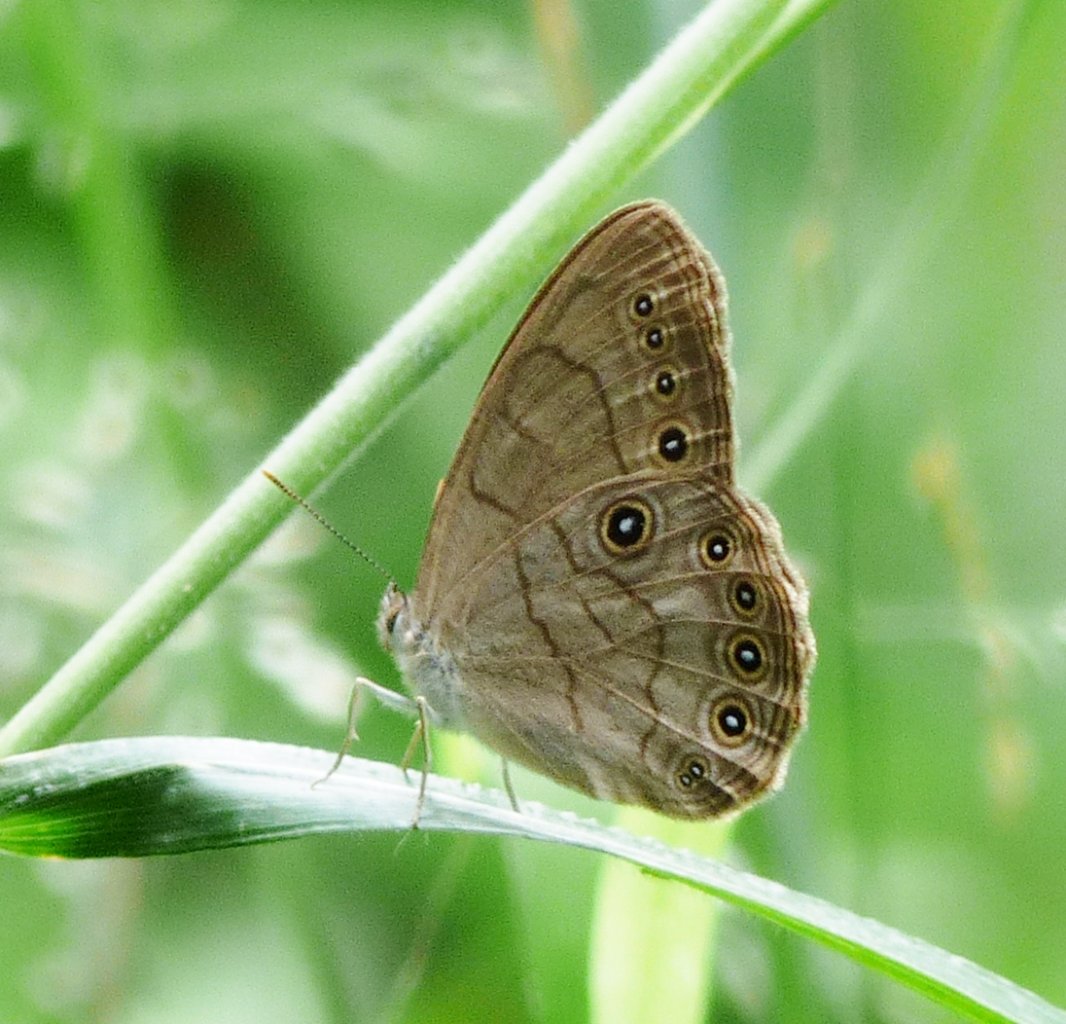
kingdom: Animalia
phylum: Arthropoda
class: Insecta
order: Lepidoptera
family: Nymphalidae
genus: Lethe
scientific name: Lethe eurydice
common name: Appalachian Eyed Brown
